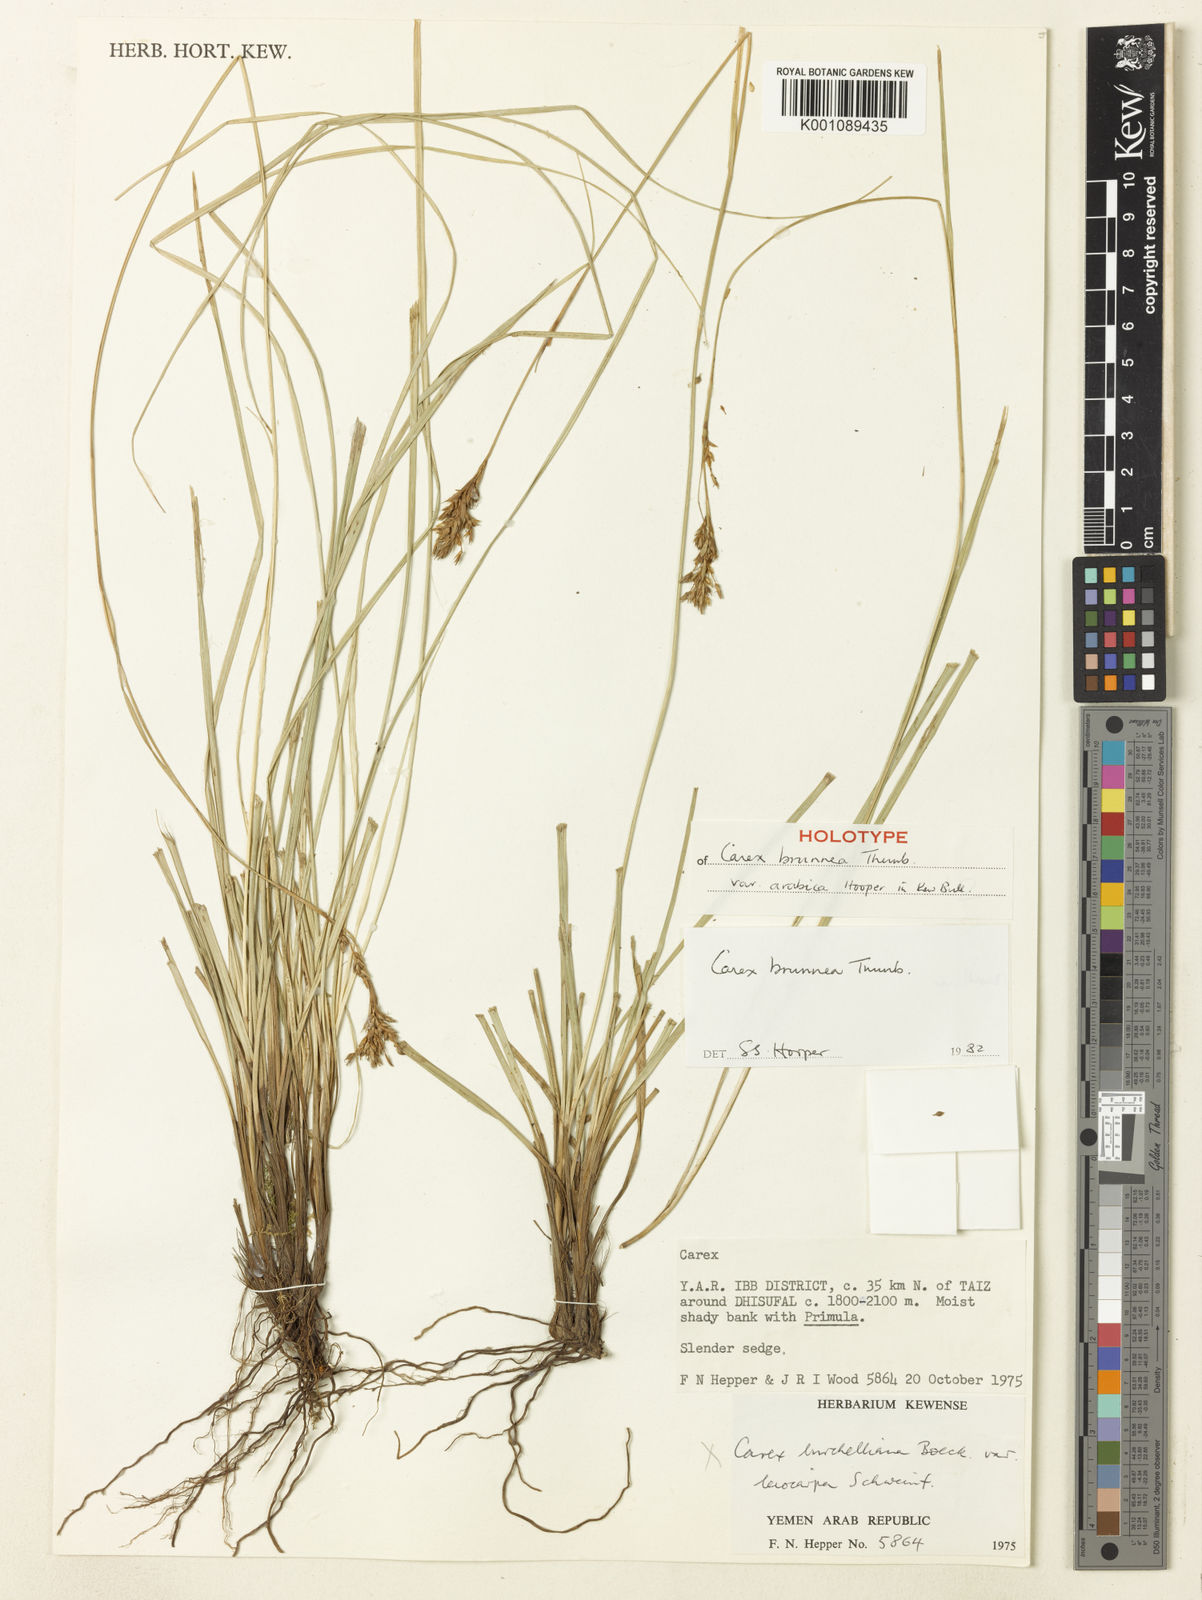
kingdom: Plantae
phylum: Tracheophyta
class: Liliopsida
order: Poales
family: Cyperaceae
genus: Carex
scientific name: Carex brunnea
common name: Greater brown sedge
